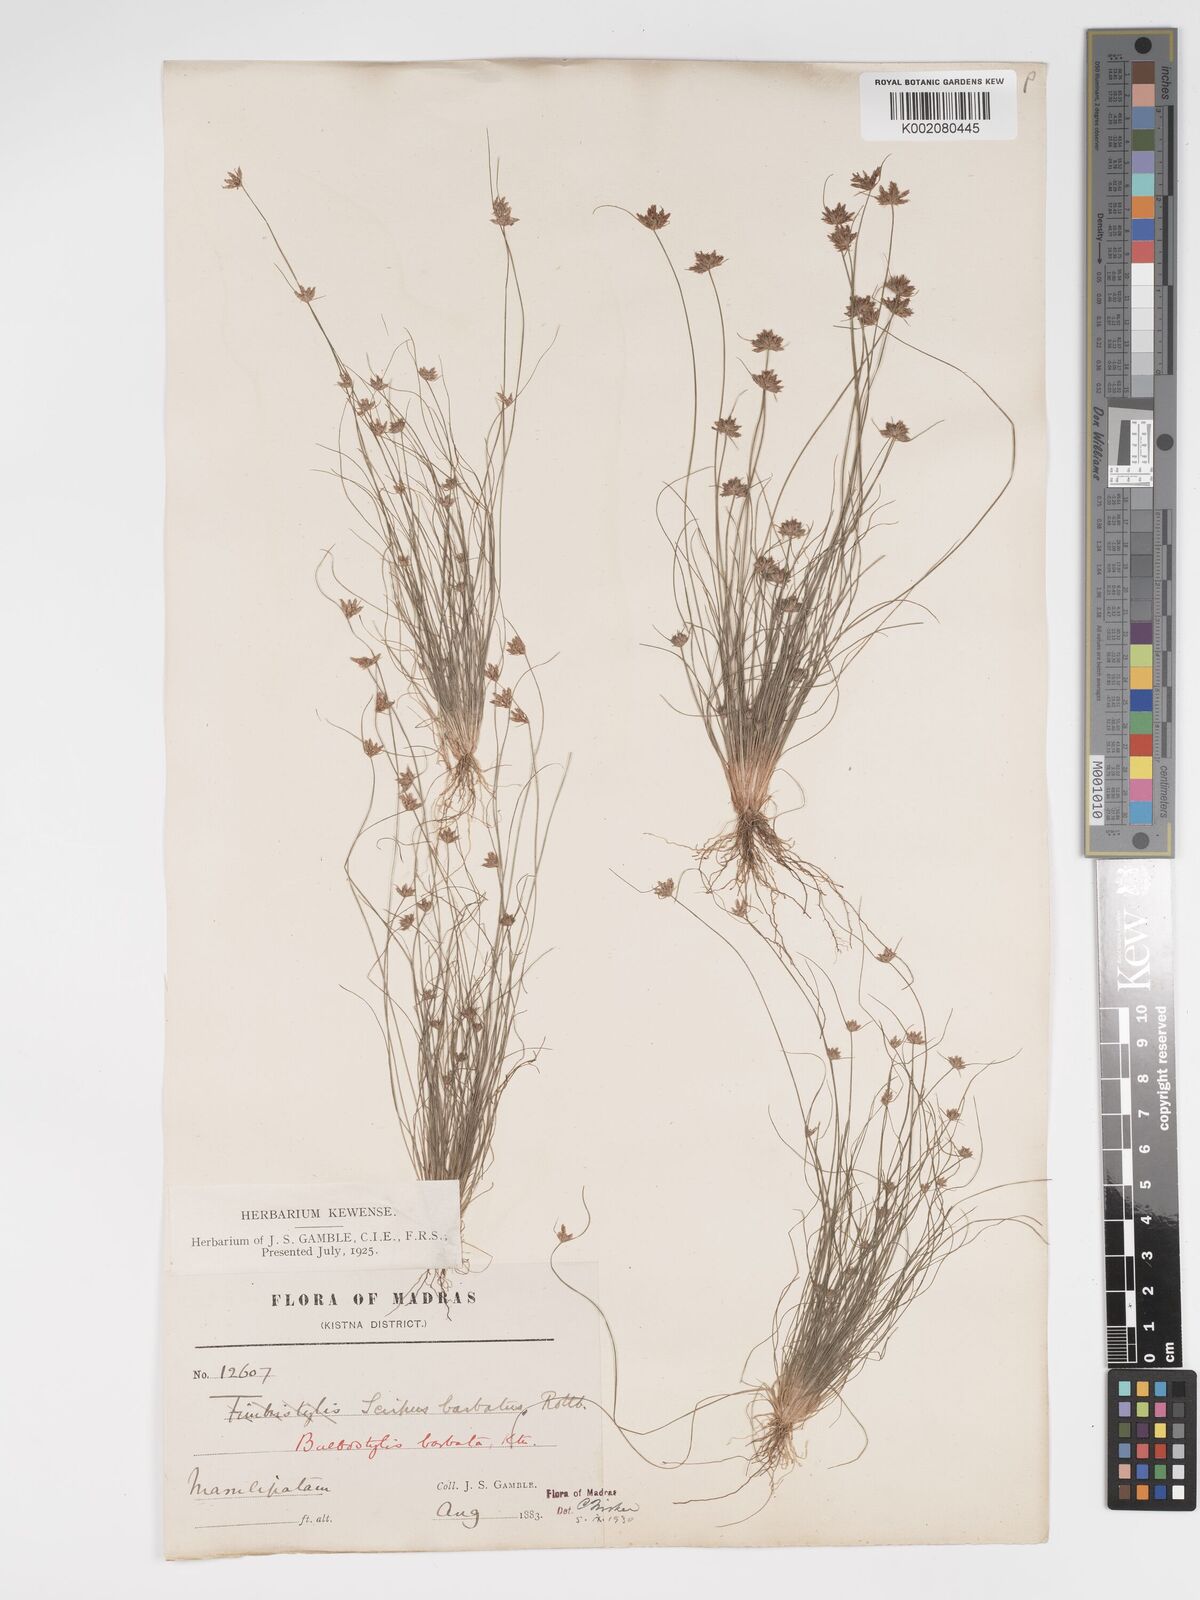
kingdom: Plantae
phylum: Tracheophyta
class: Liliopsida
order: Poales
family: Cyperaceae
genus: Bulbostylis
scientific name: Bulbostylis barbata
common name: Watergrass
